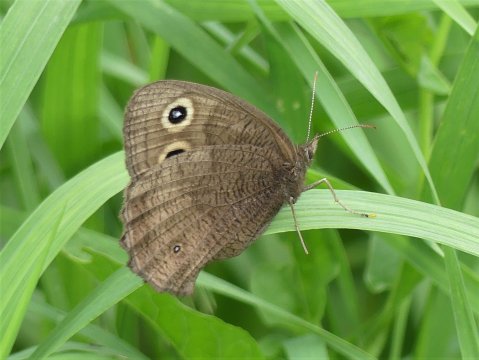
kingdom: Animalia
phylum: Arthropoda
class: Insecta
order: Lepidoptera
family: Nymphalidae
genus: Cercyonis
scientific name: Cercyonis pegala
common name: Common Wood-Nymph
